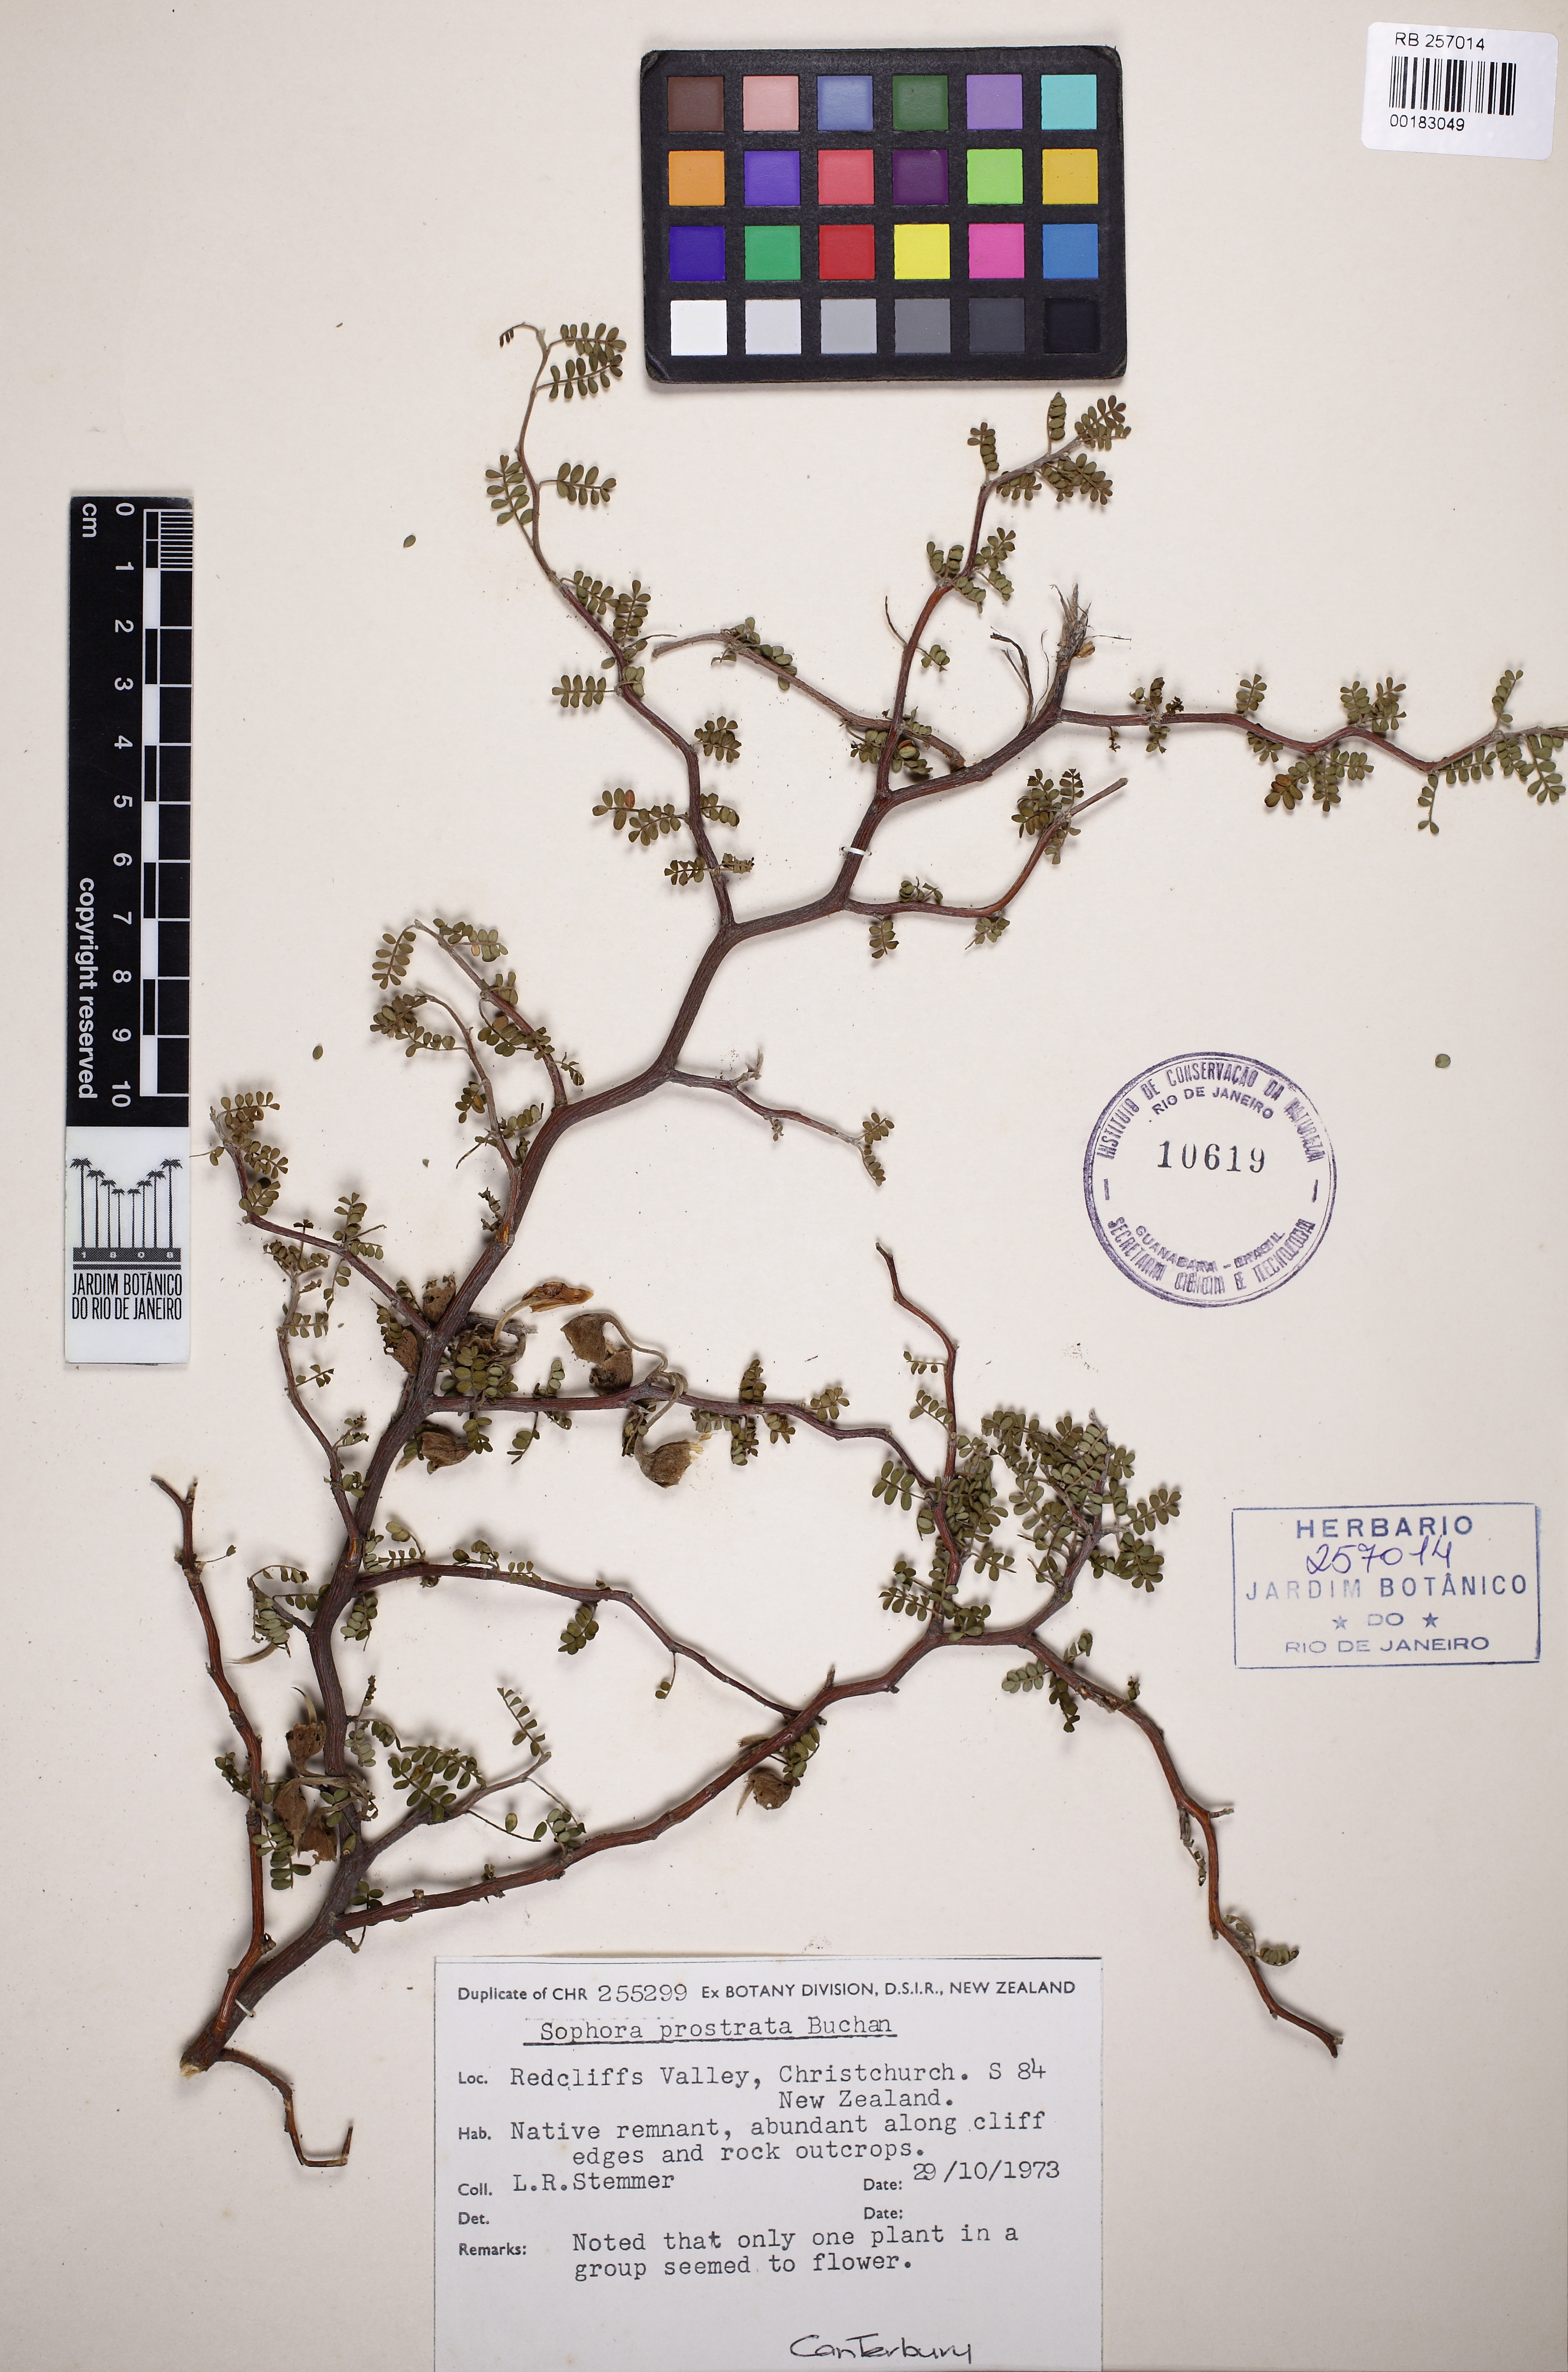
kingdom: Plantae
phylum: Tracheophyta
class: Magnoliopsida
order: Fabales
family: Fabaceae
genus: Sophora
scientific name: Sophora prostrata
